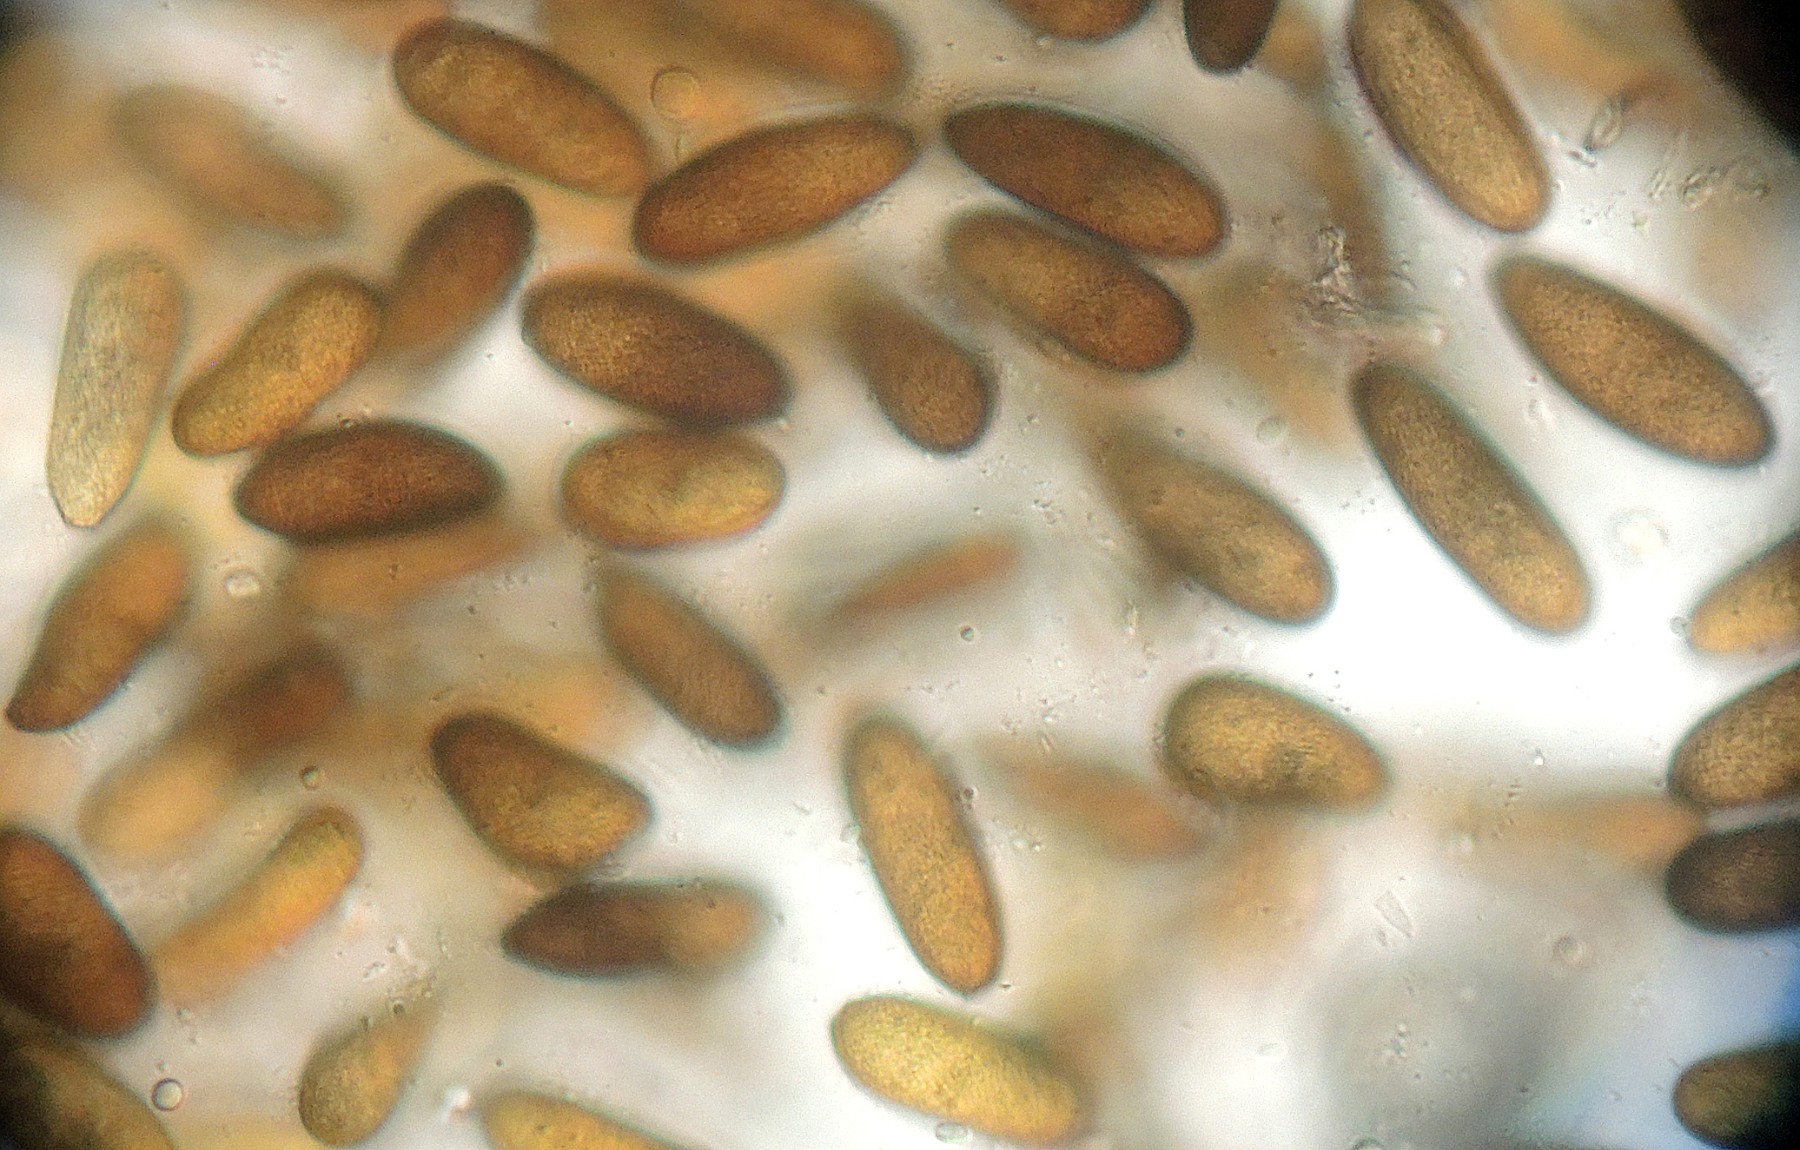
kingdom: Fungi
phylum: Ascomycota
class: Dothideomycetes
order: Botryosphaeriales
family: Botryosphaeriaceae
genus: Sphaeropsis
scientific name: Sphaeropsis sapinea
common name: Sphaeropsis blight
